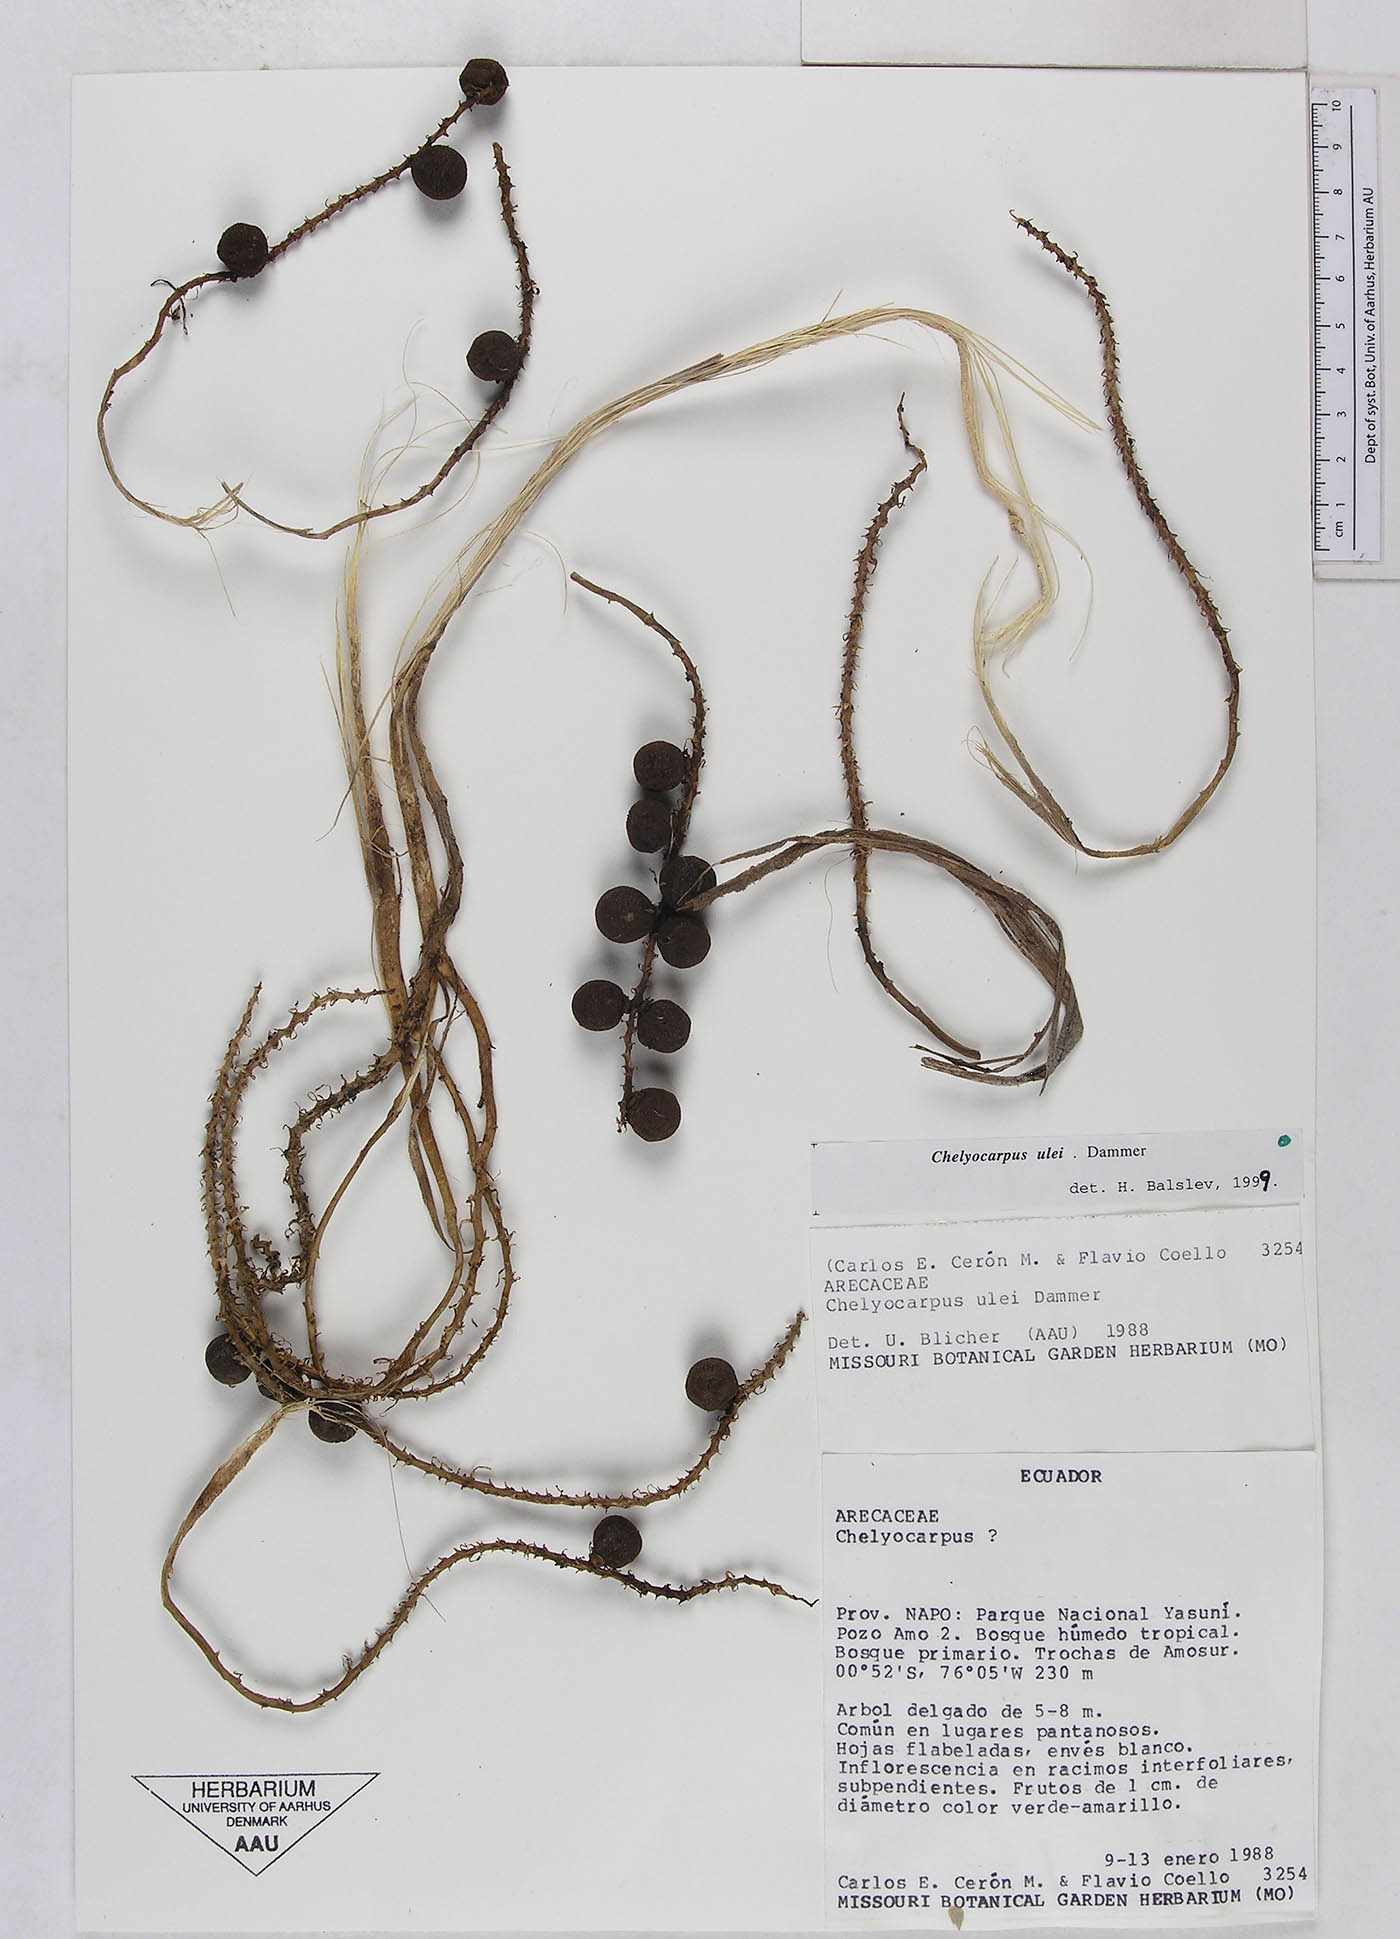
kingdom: Plantae
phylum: Tracheophyta
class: Liliopsida
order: Arecales
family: Arecaceae
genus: Chelyocarpus
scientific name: Chelyocarpus ulei
